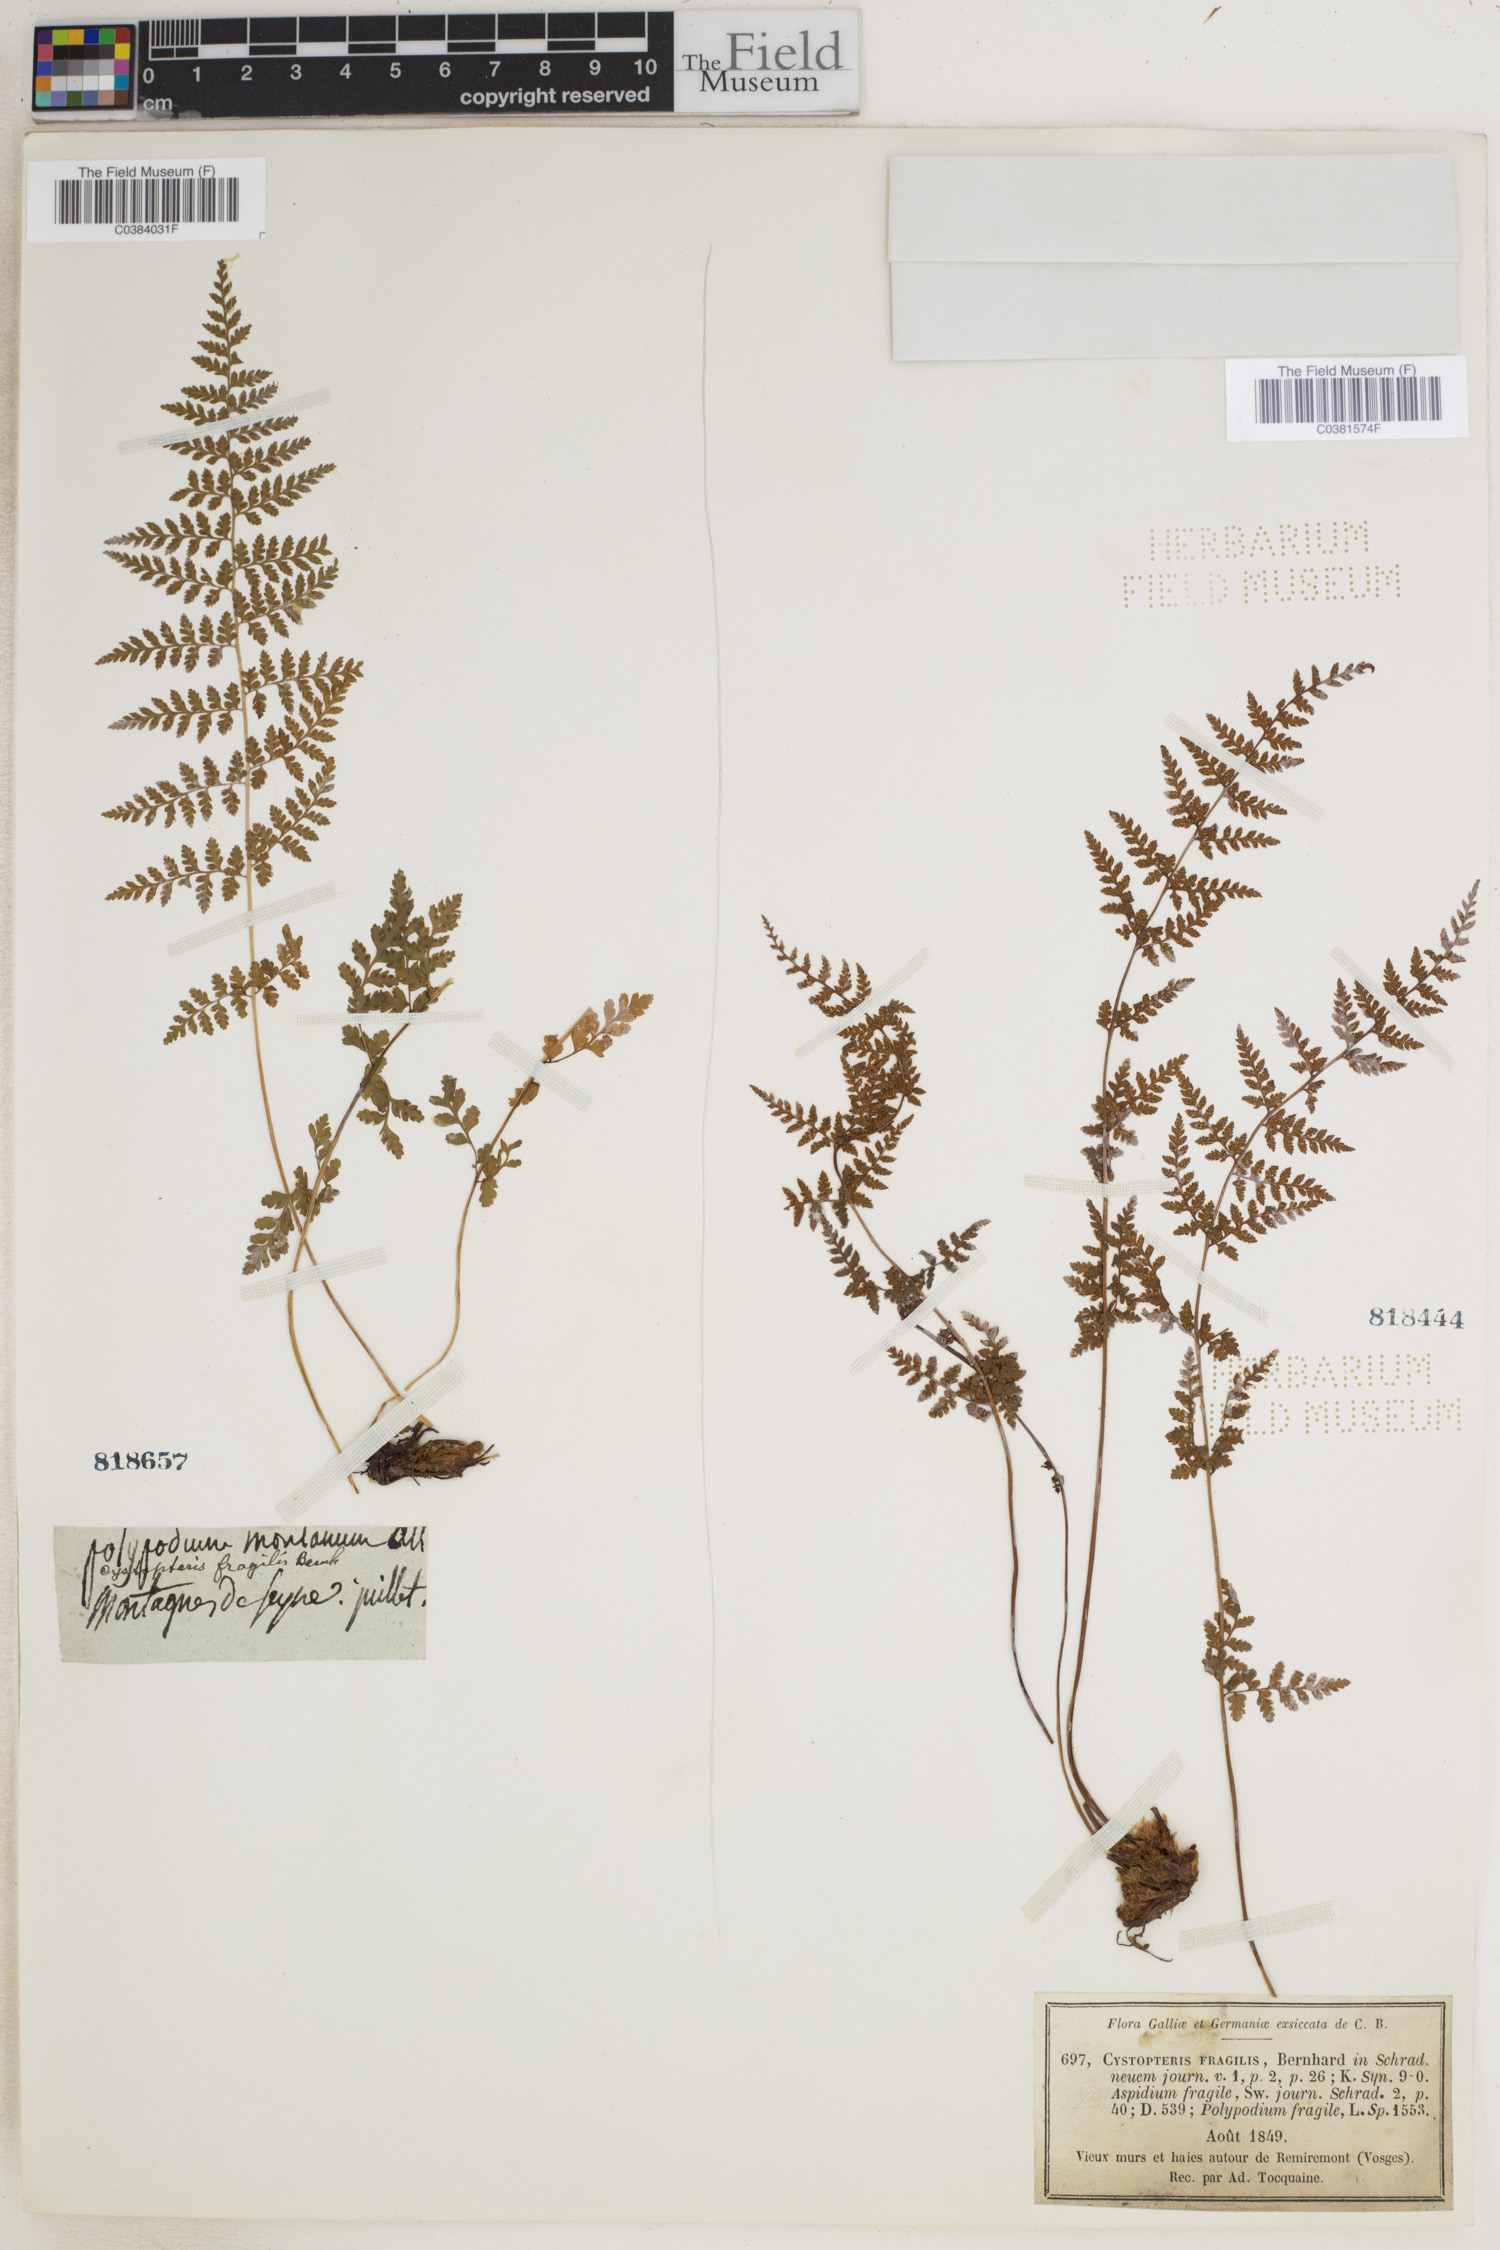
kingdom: Plantae
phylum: Tracheophyta
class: Polypodiopsida
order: Polypodiales
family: Cystopteridaceae
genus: Cystopteris
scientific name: Cystopteris fragilis
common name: Brittle bladder fern
